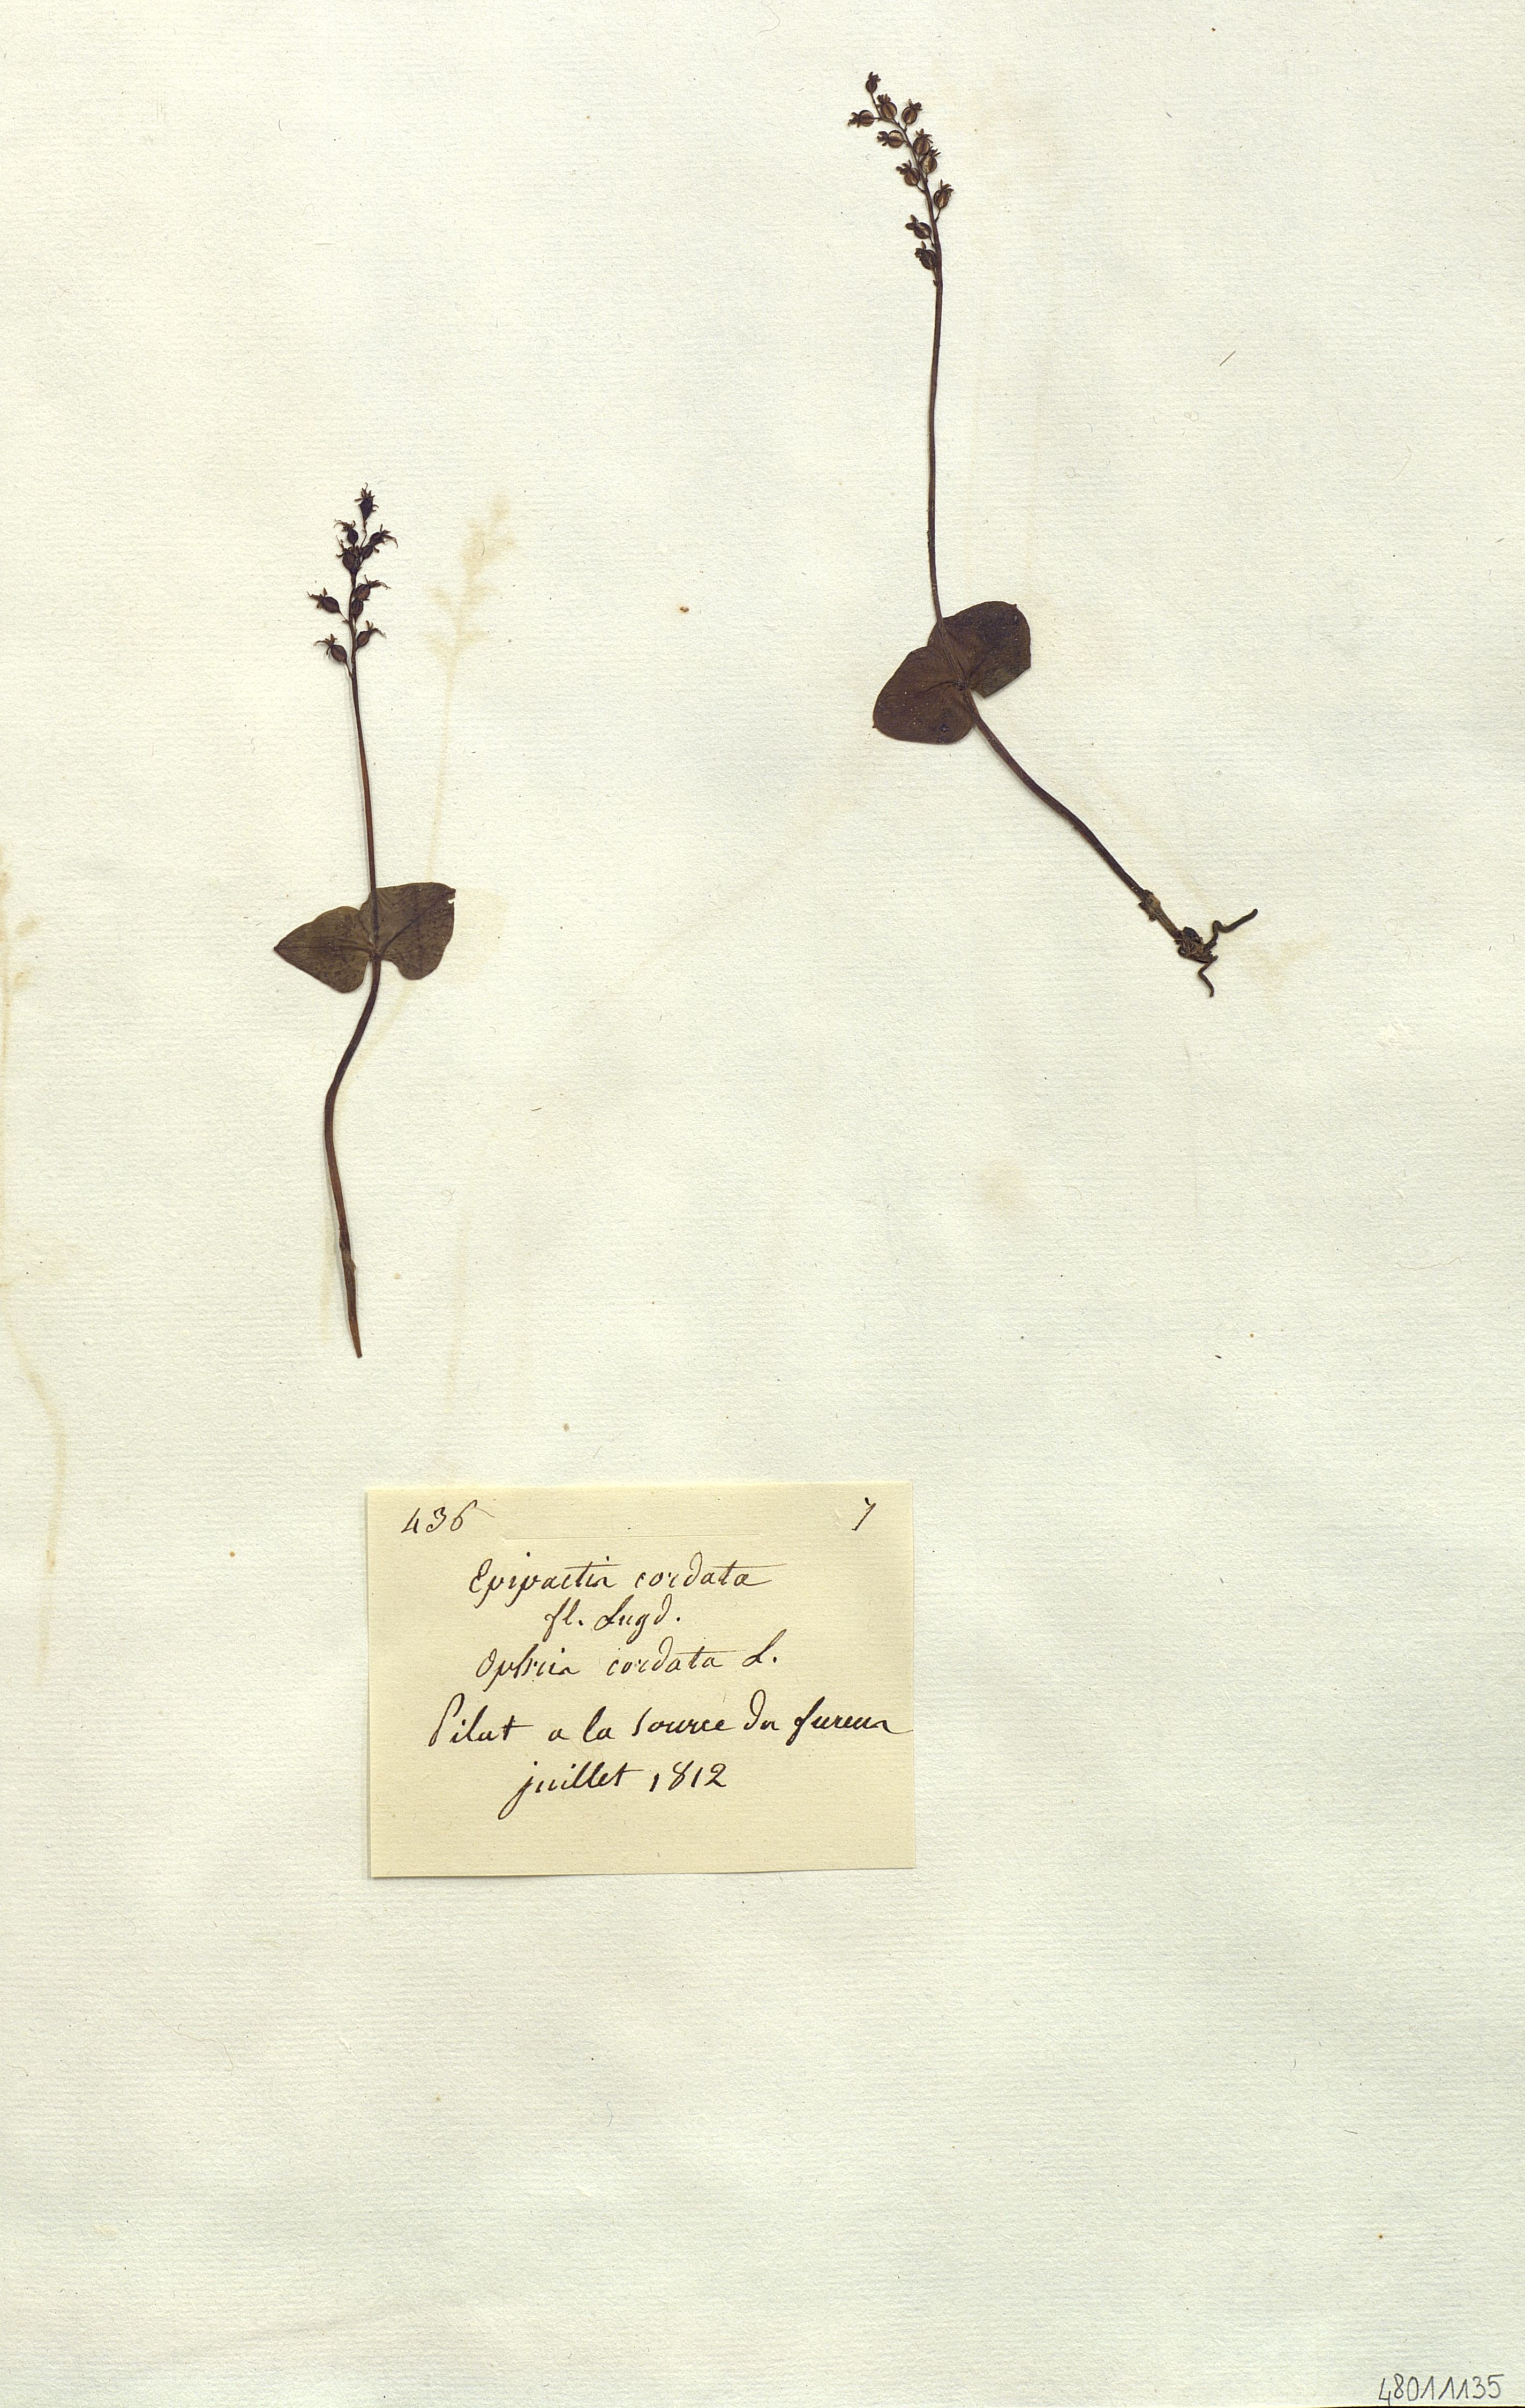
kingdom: Plantae
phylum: Tracheophyta
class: Liliopsida
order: Asparagales
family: Orchidaceae
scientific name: Orchidaceae
